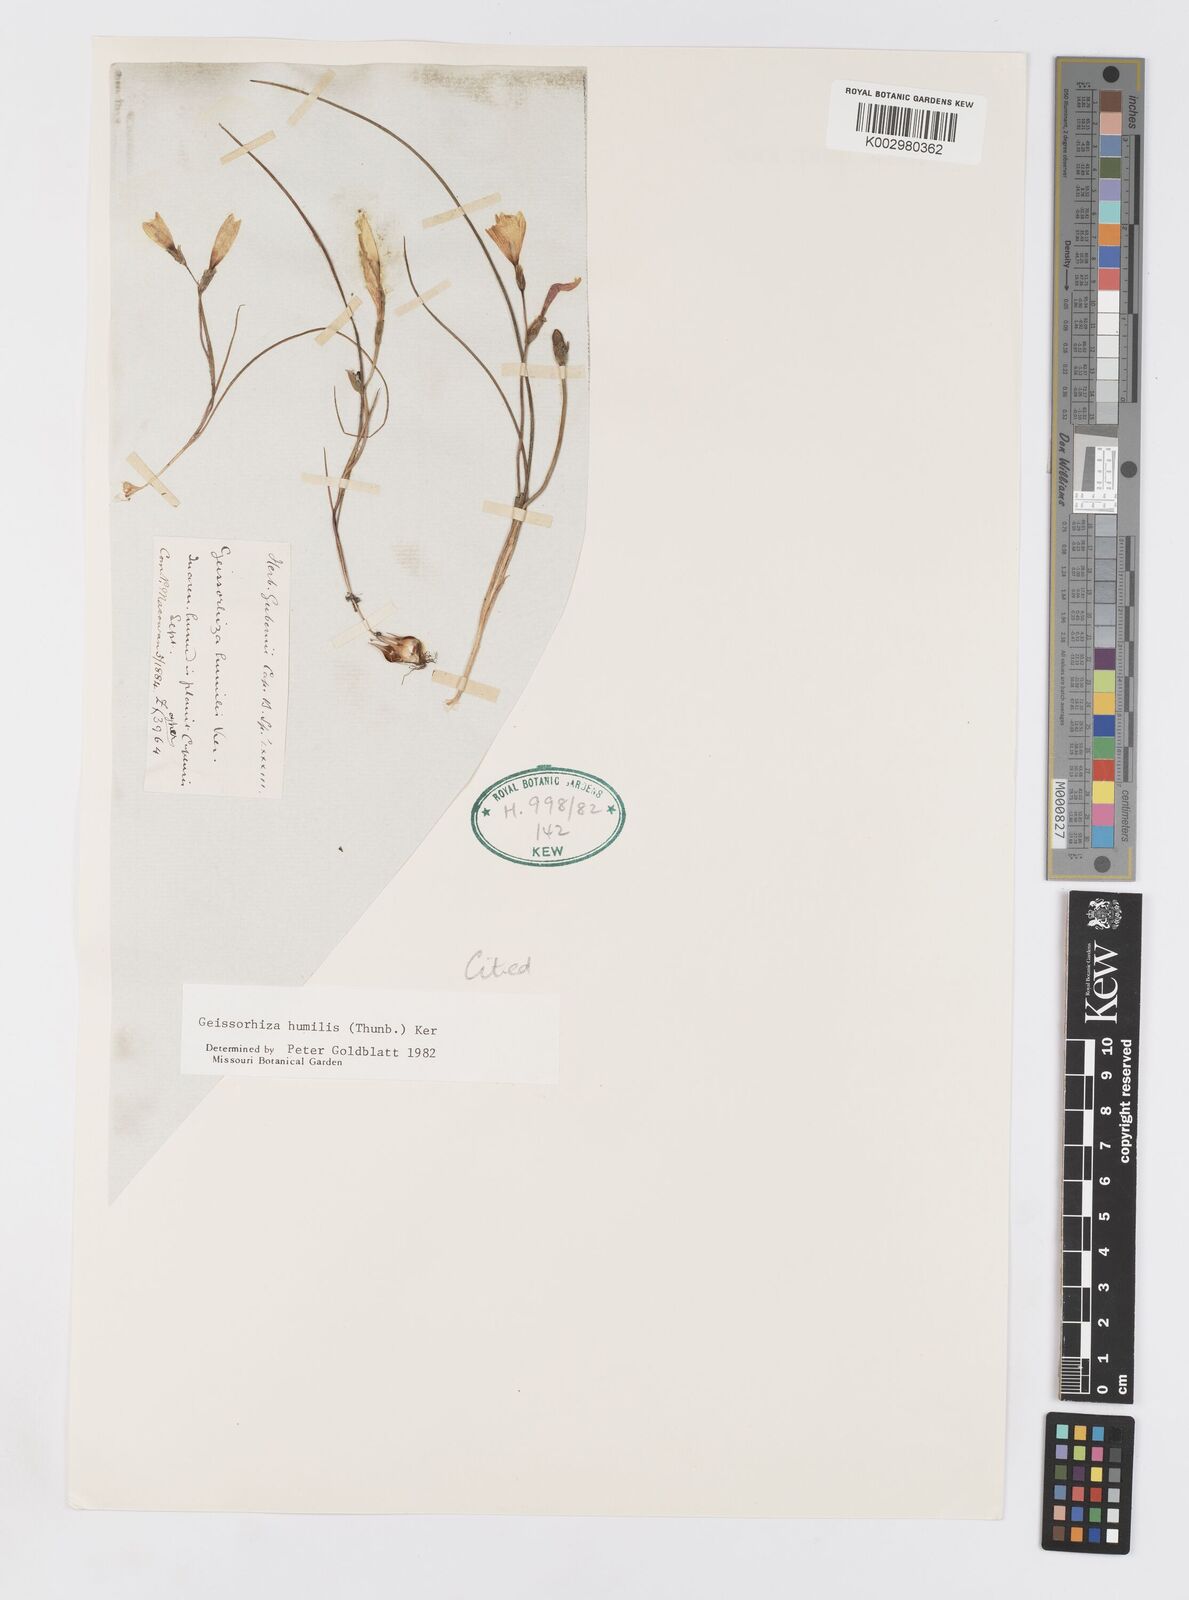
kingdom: Plantae
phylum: Tracheophyta
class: Liliopsida
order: Asparagales
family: Iridaceae
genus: Geissorhiza
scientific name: Geissorhiza humilis
